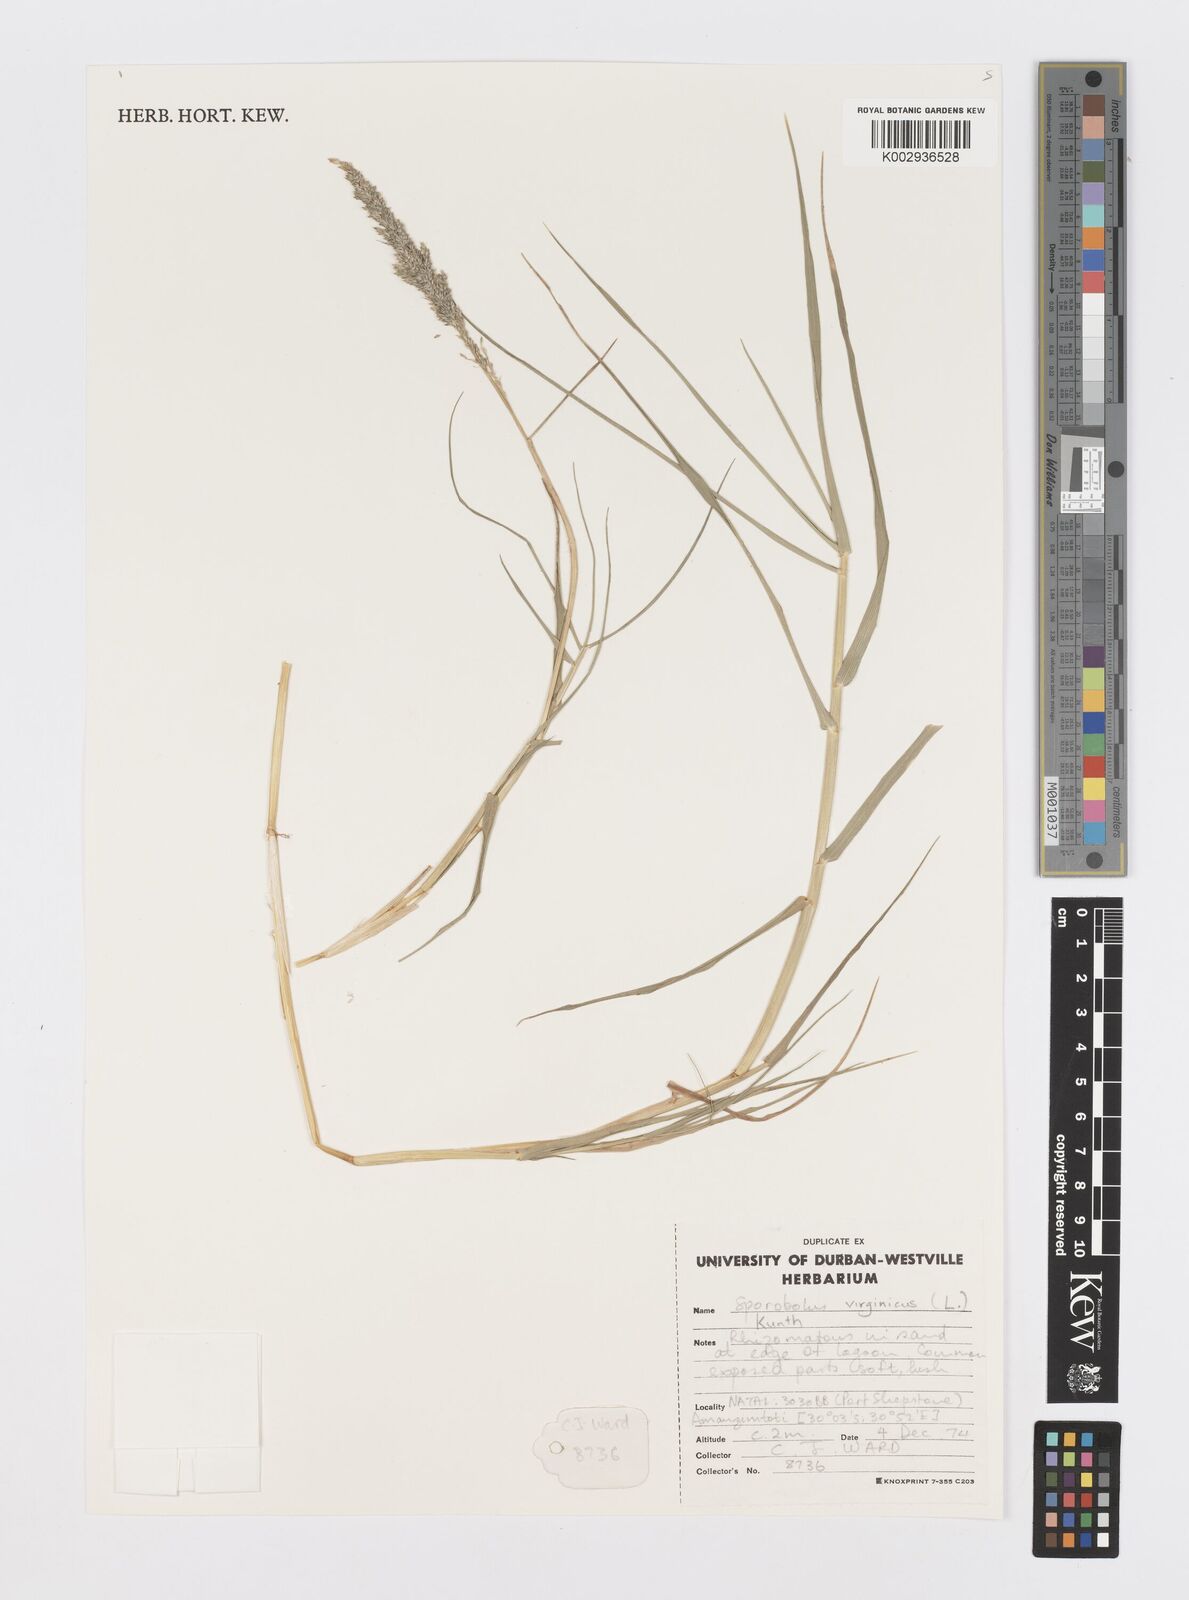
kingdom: Plantae
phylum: Tracheophyta
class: Liliopsida
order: Poales
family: Poaceae
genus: Sporobolus
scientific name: Sporobolus virginicus
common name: Beach dropseed
